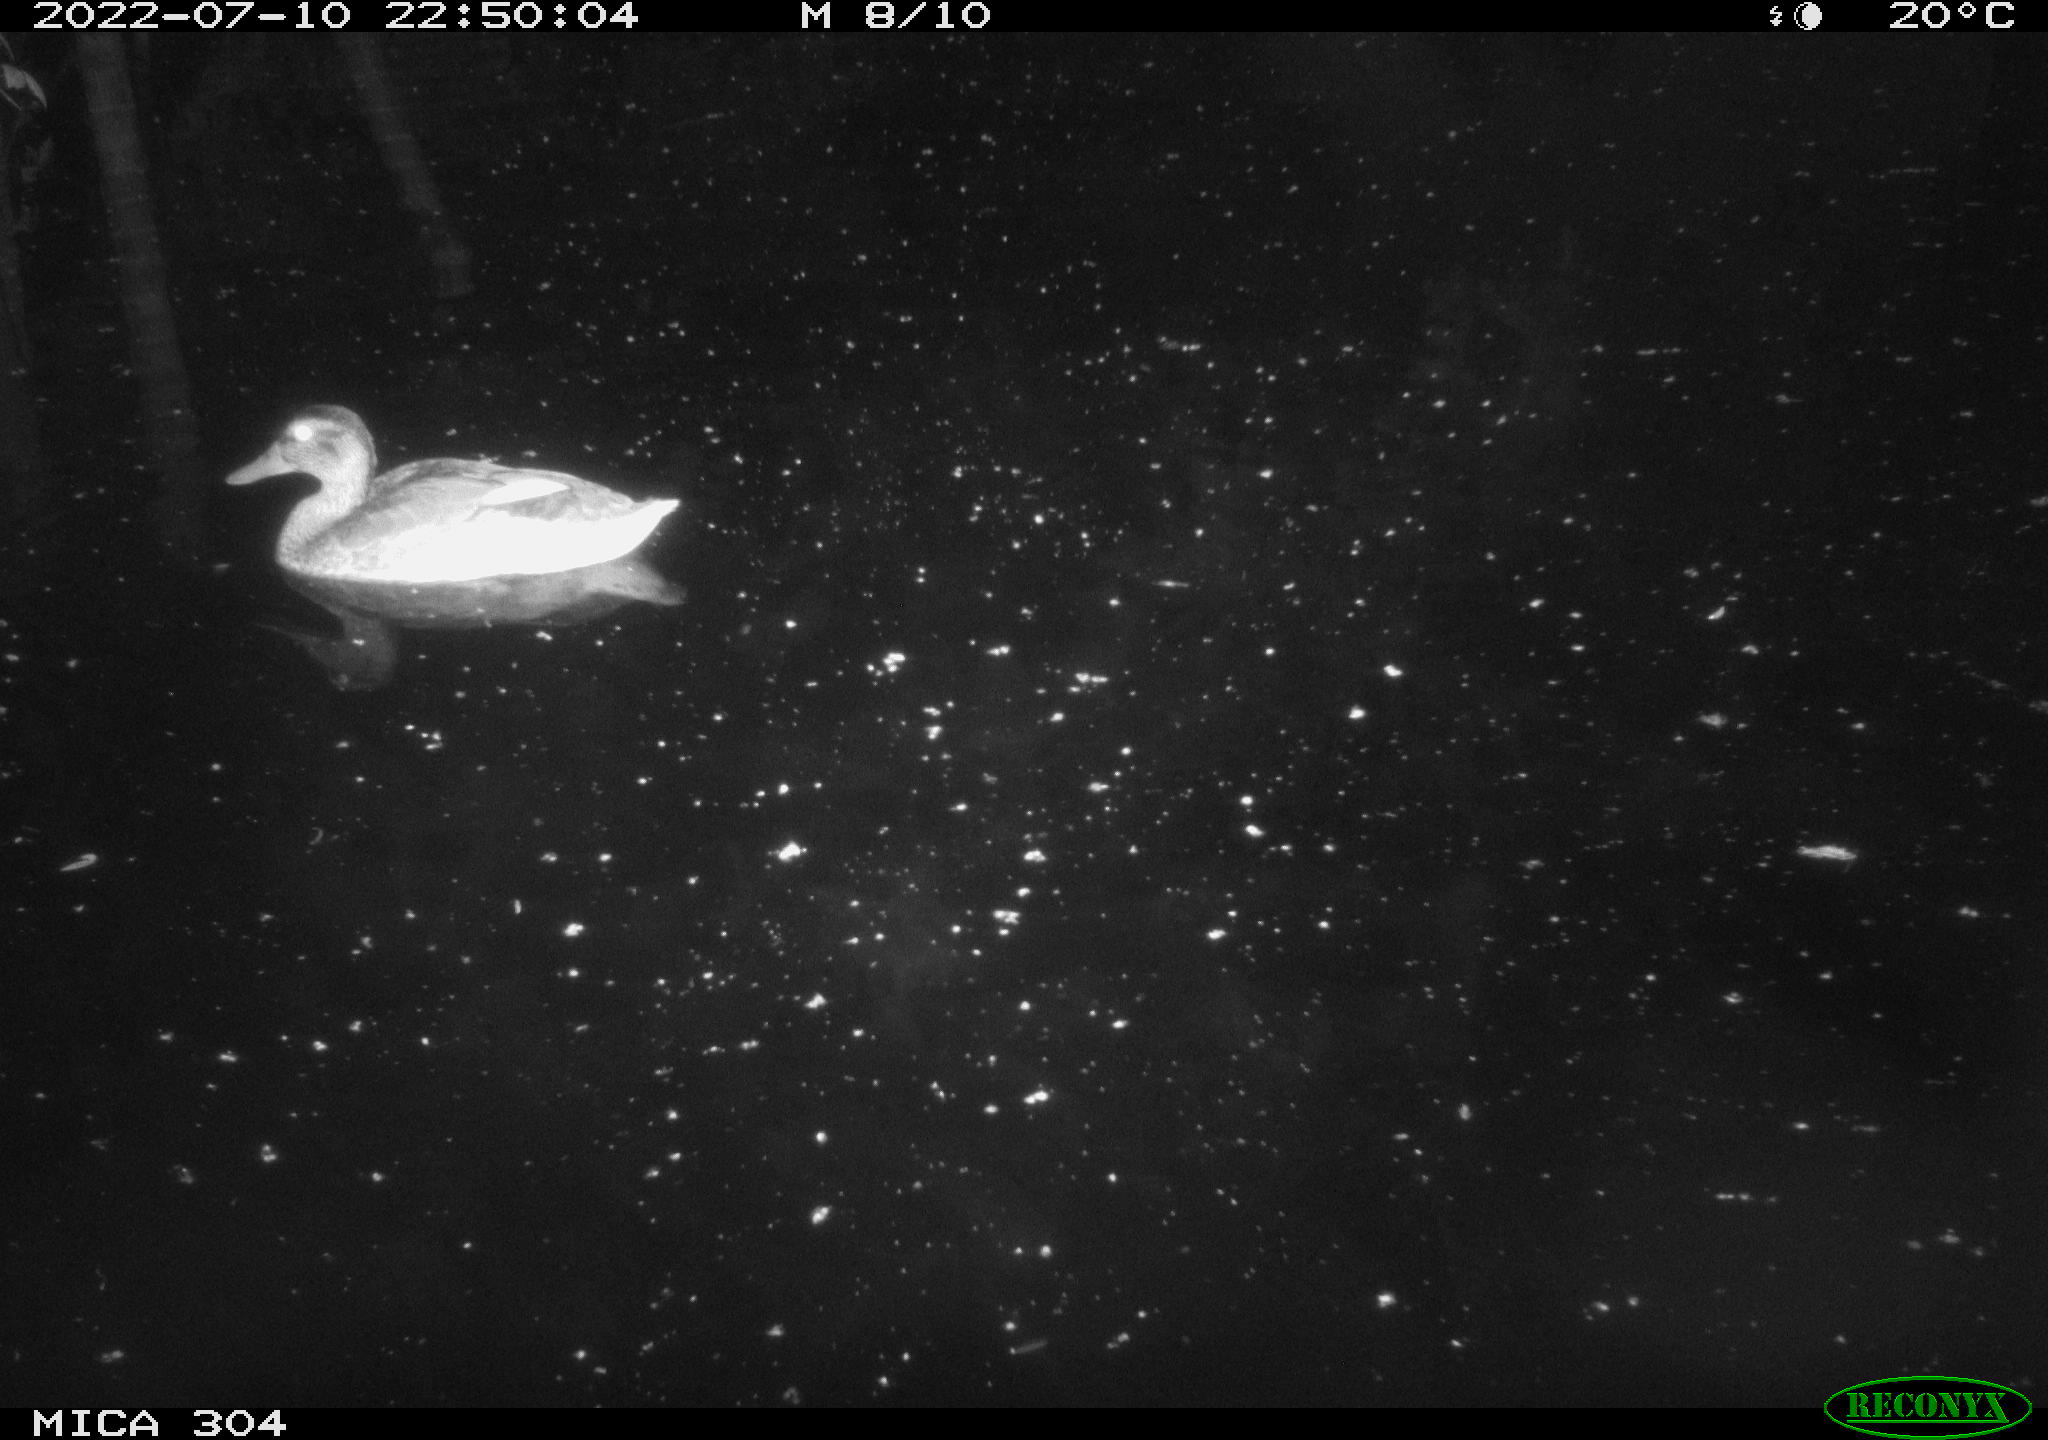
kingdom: Animalia
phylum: Chordata
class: Aves
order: Anseriformes
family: Anatidae
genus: Mareca
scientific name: Mareca strepera
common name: Gadwall
